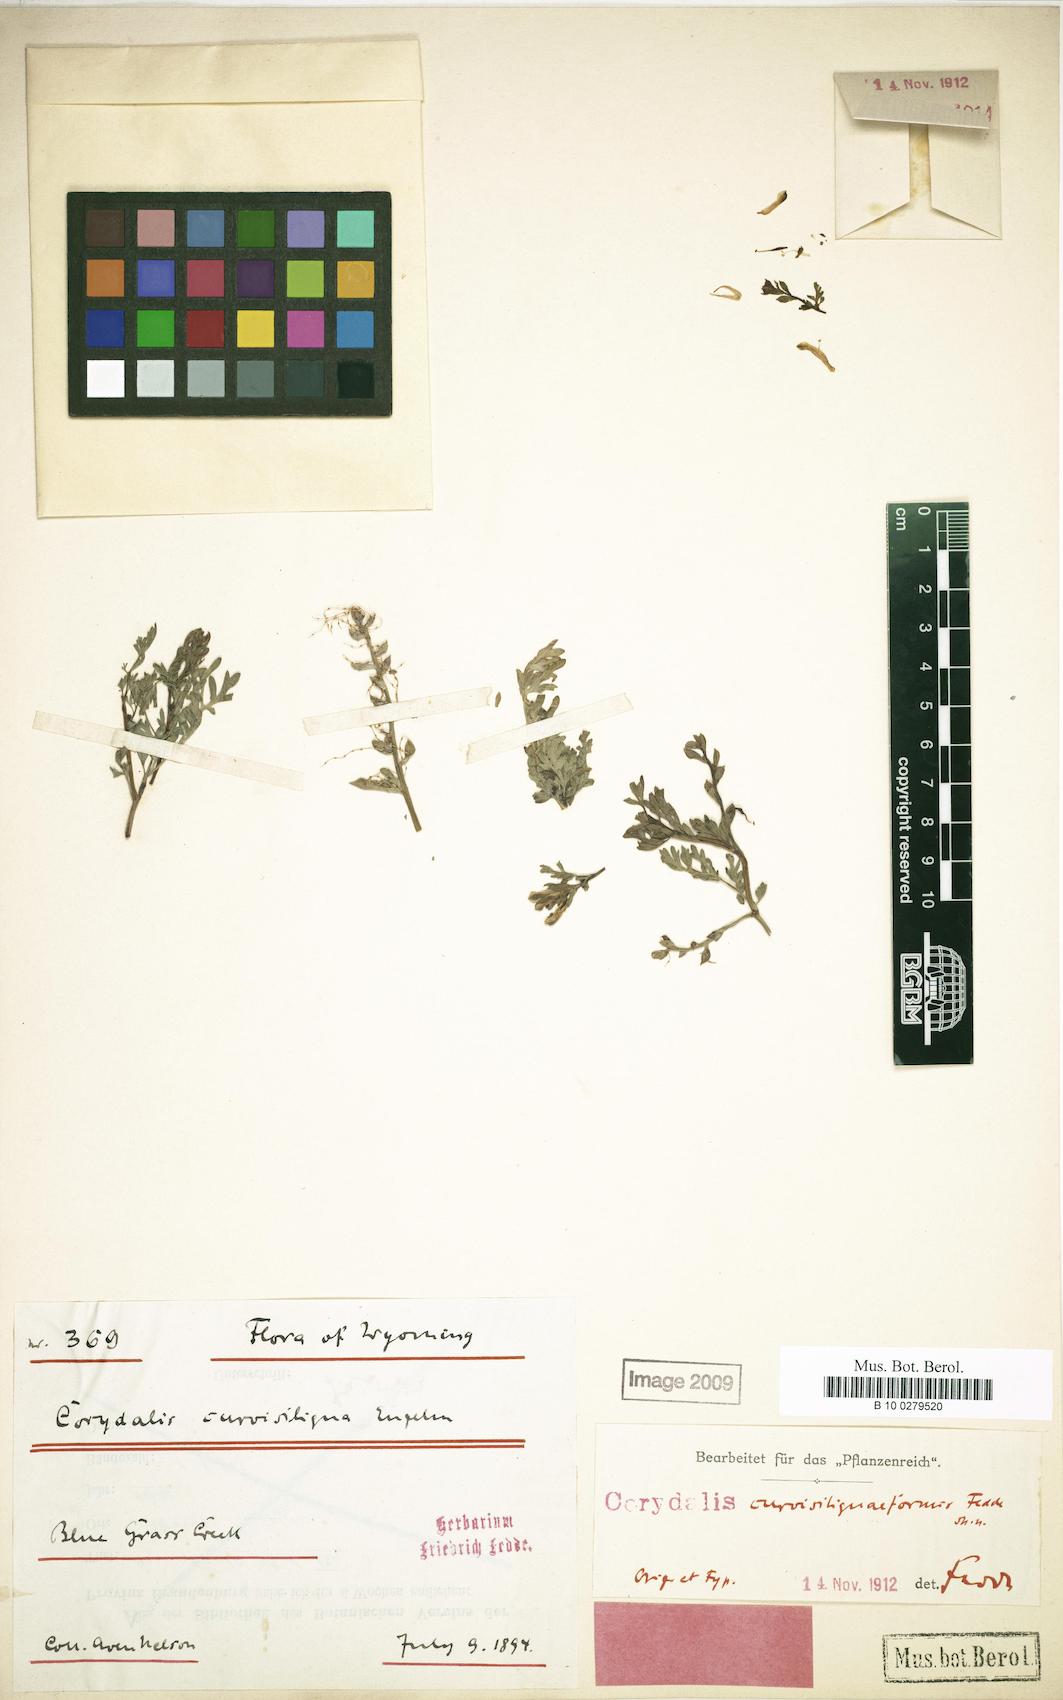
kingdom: Plantae
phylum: Tracheophyta
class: Magnoliopsida
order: Ranunculales
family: Papaveraceae
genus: Corydalis
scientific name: Corydalis curvisiliquiformis
